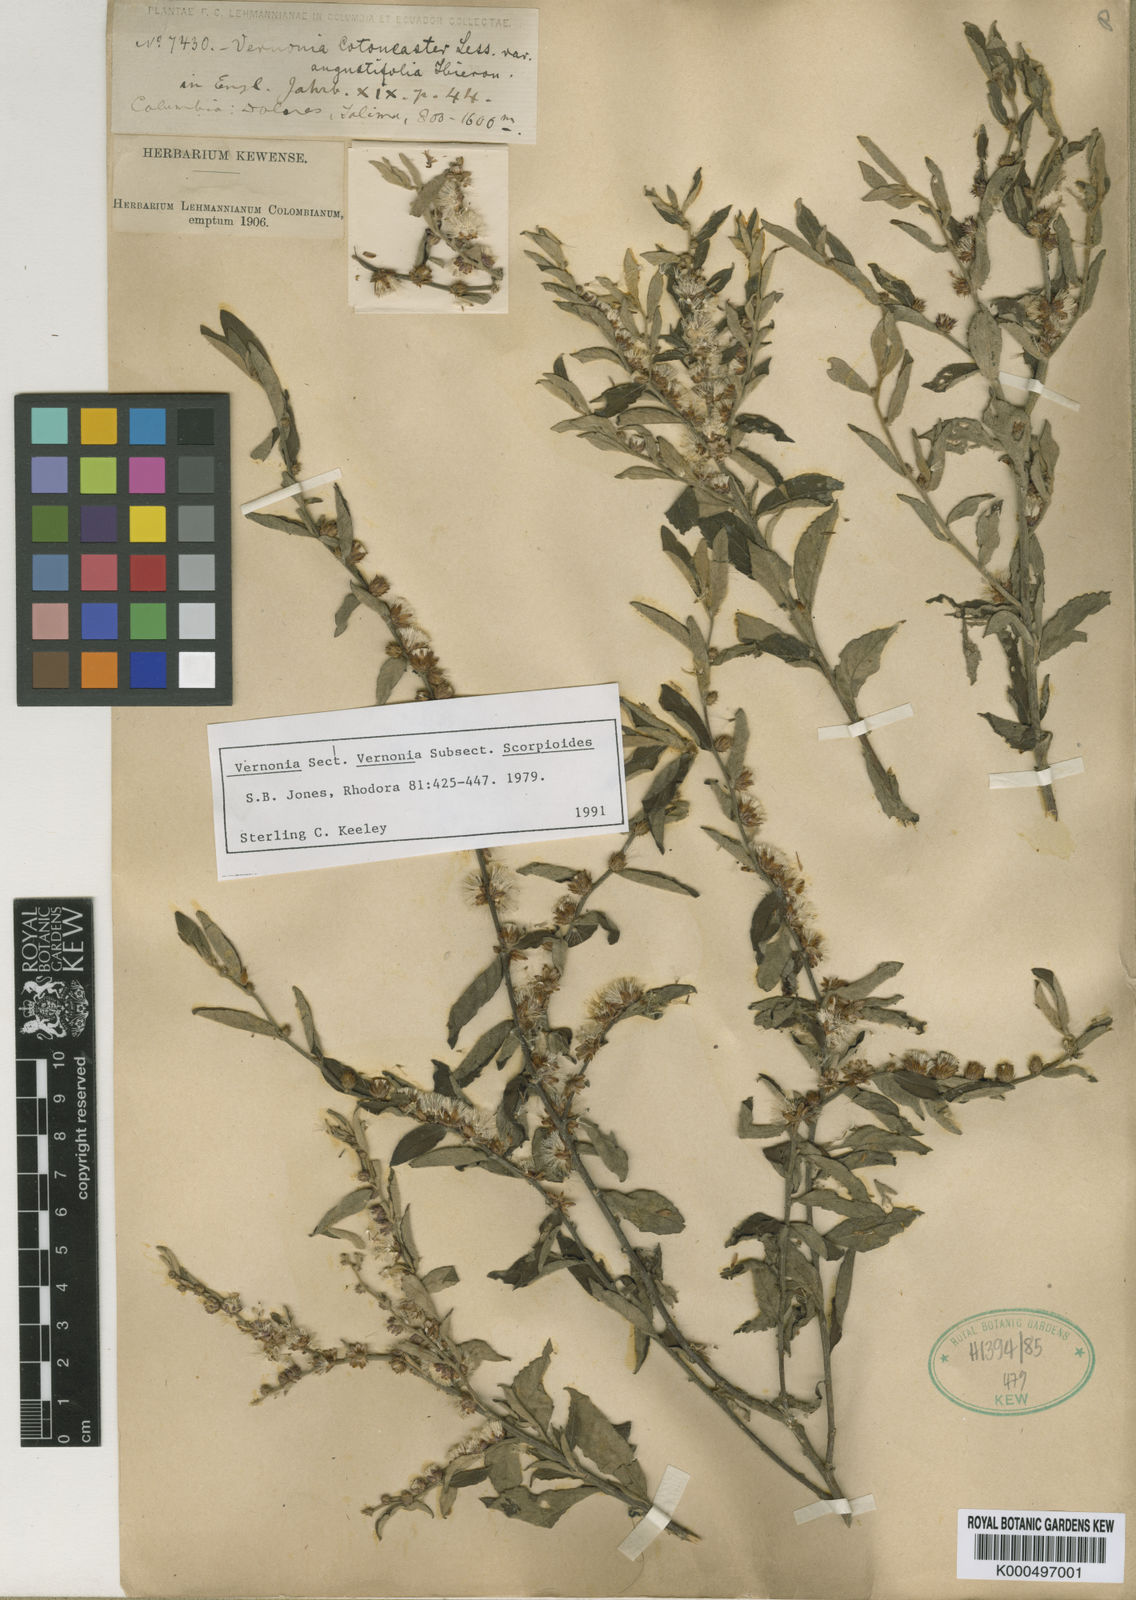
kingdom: Plantae
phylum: Tracheophyta
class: Magnoliopsida
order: Asterales
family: Asteraceae
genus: Lepidaploa
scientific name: Lepidaploa cotoneaster
